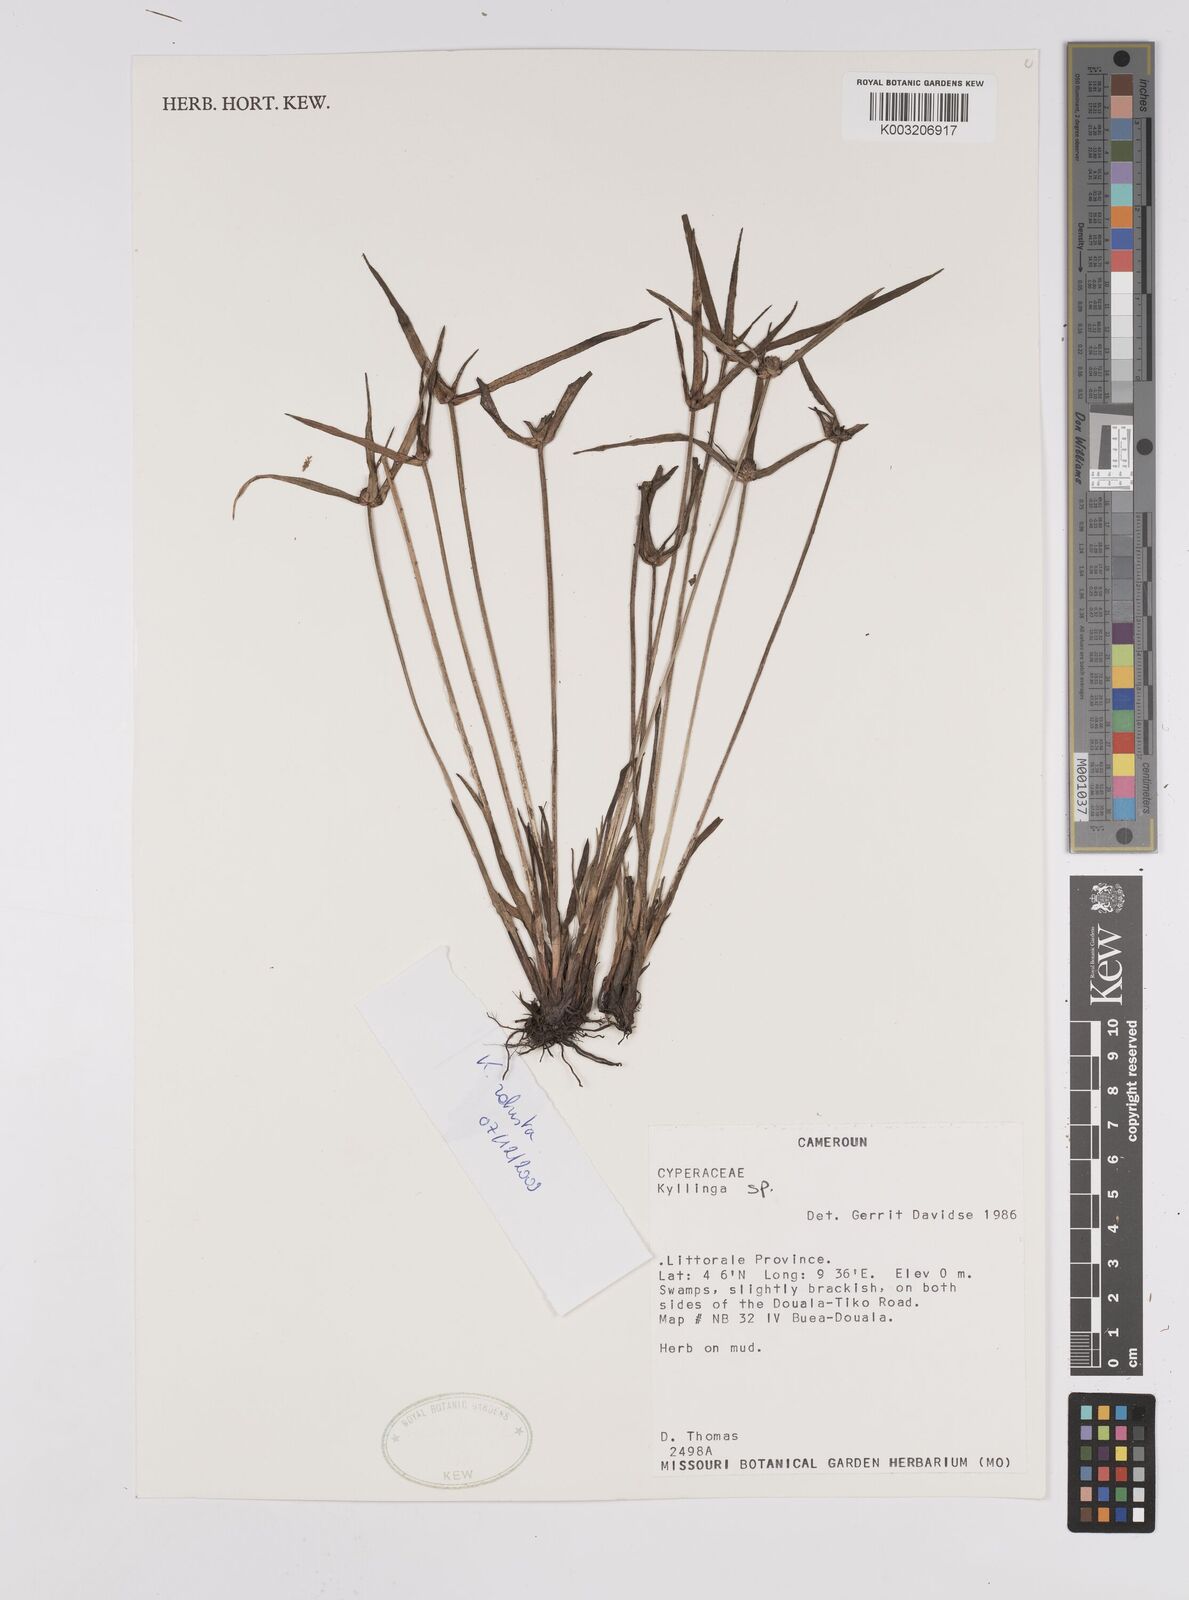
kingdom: Plantae
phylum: Tracheophyta
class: Liliopsida
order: Poales
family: Cyperaceae
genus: Cyperus
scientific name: Cyperus hortensis
